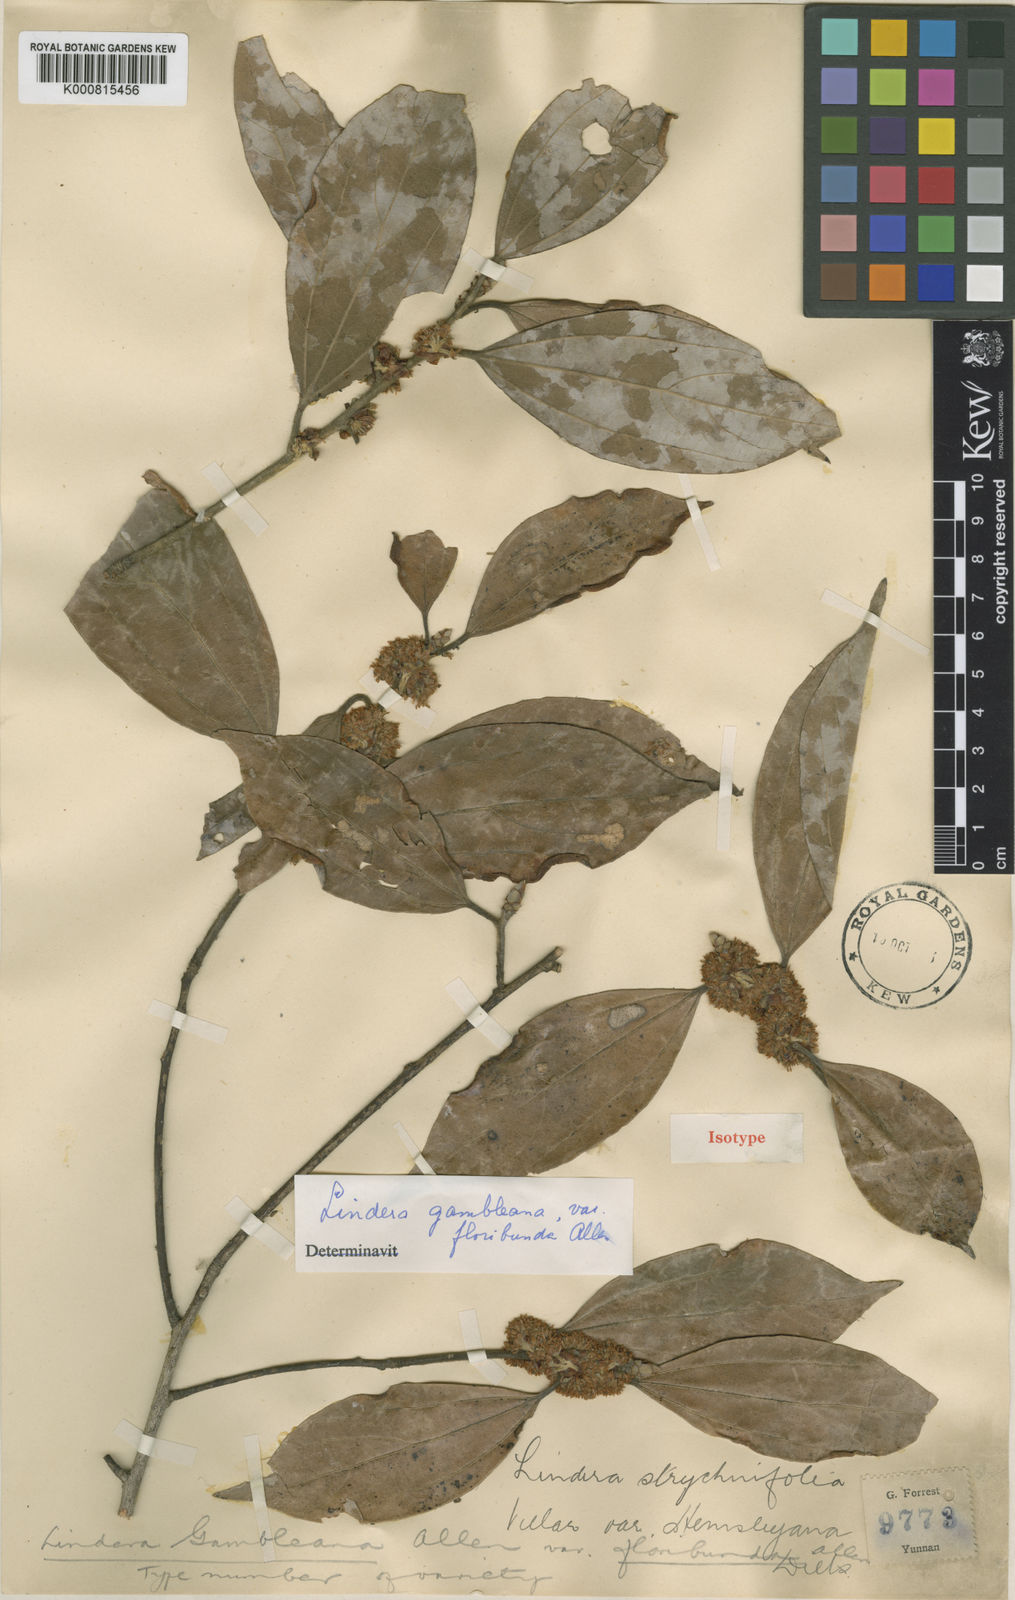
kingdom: Plantae
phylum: Tracheophyta
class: Magnoliopsida
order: Laurales
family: Lauraceae
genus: Lindera
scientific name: Lindera pulcherrima
